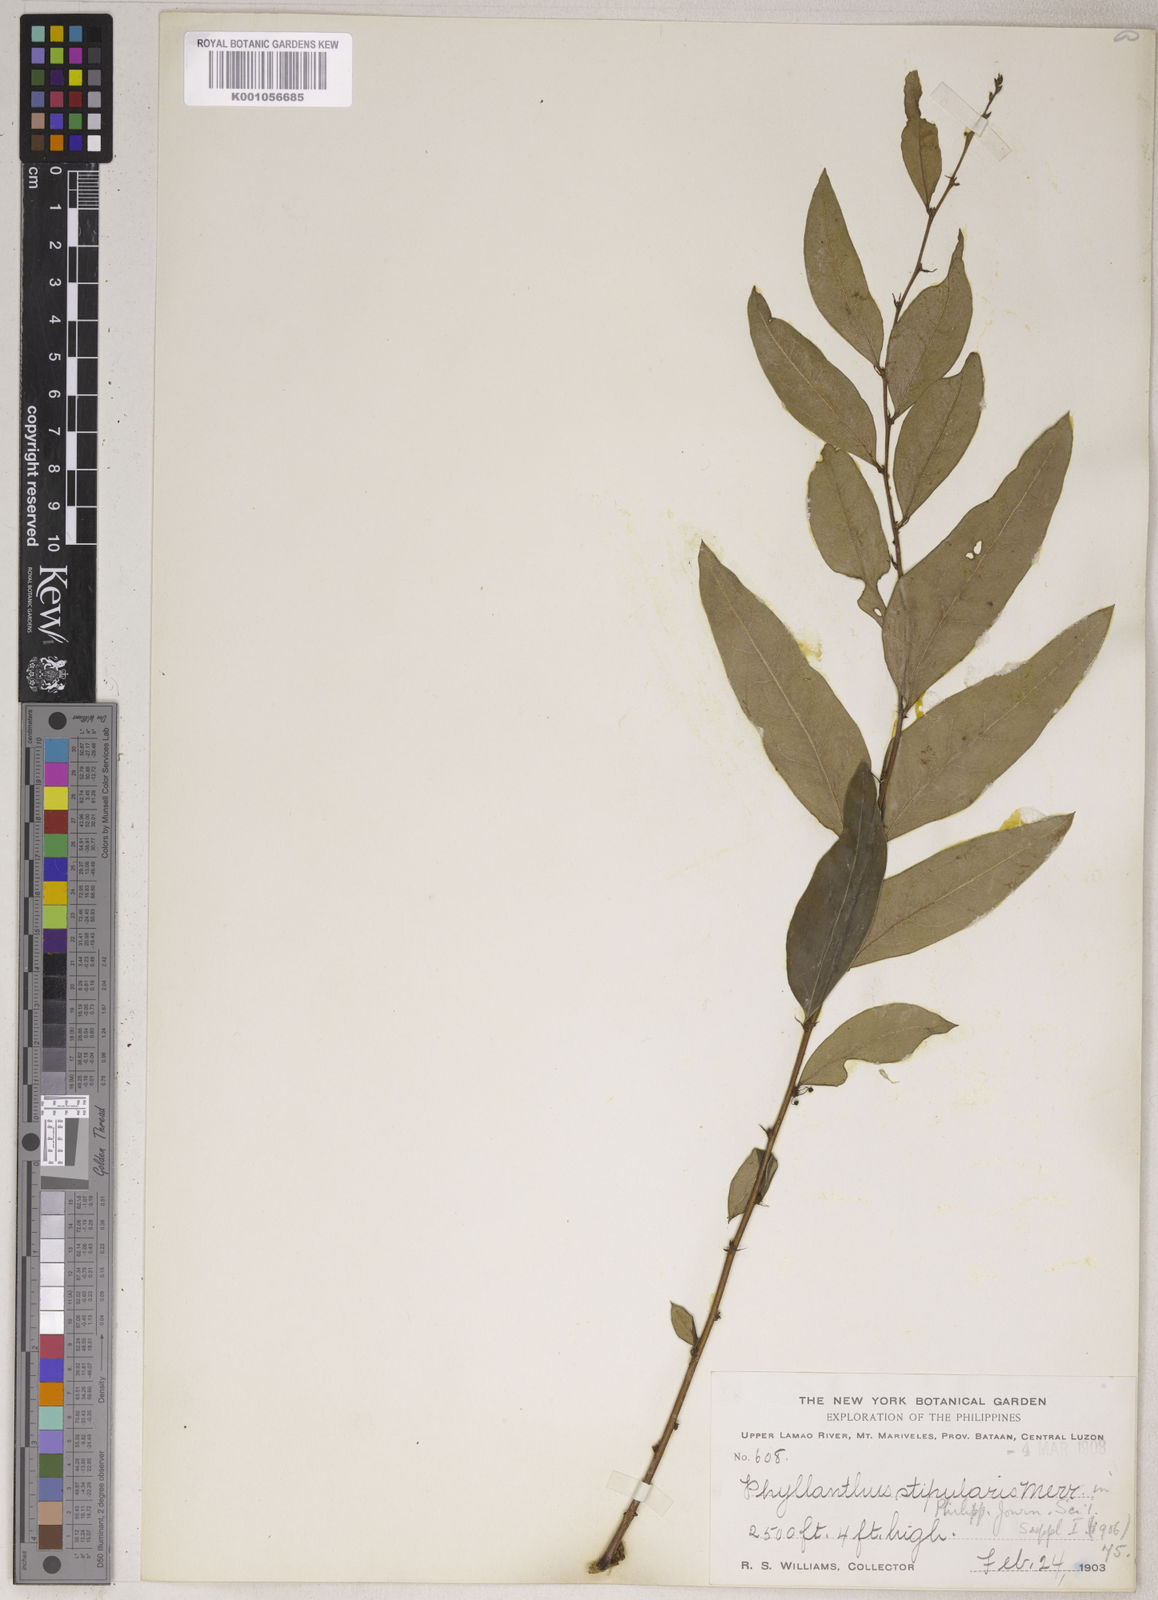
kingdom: Plantae
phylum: Tracheophyta
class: Magnoliopsida
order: Malpighiales
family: Phyllanthaceae
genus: Phyllanthus
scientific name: Phyllanthus stipularis
